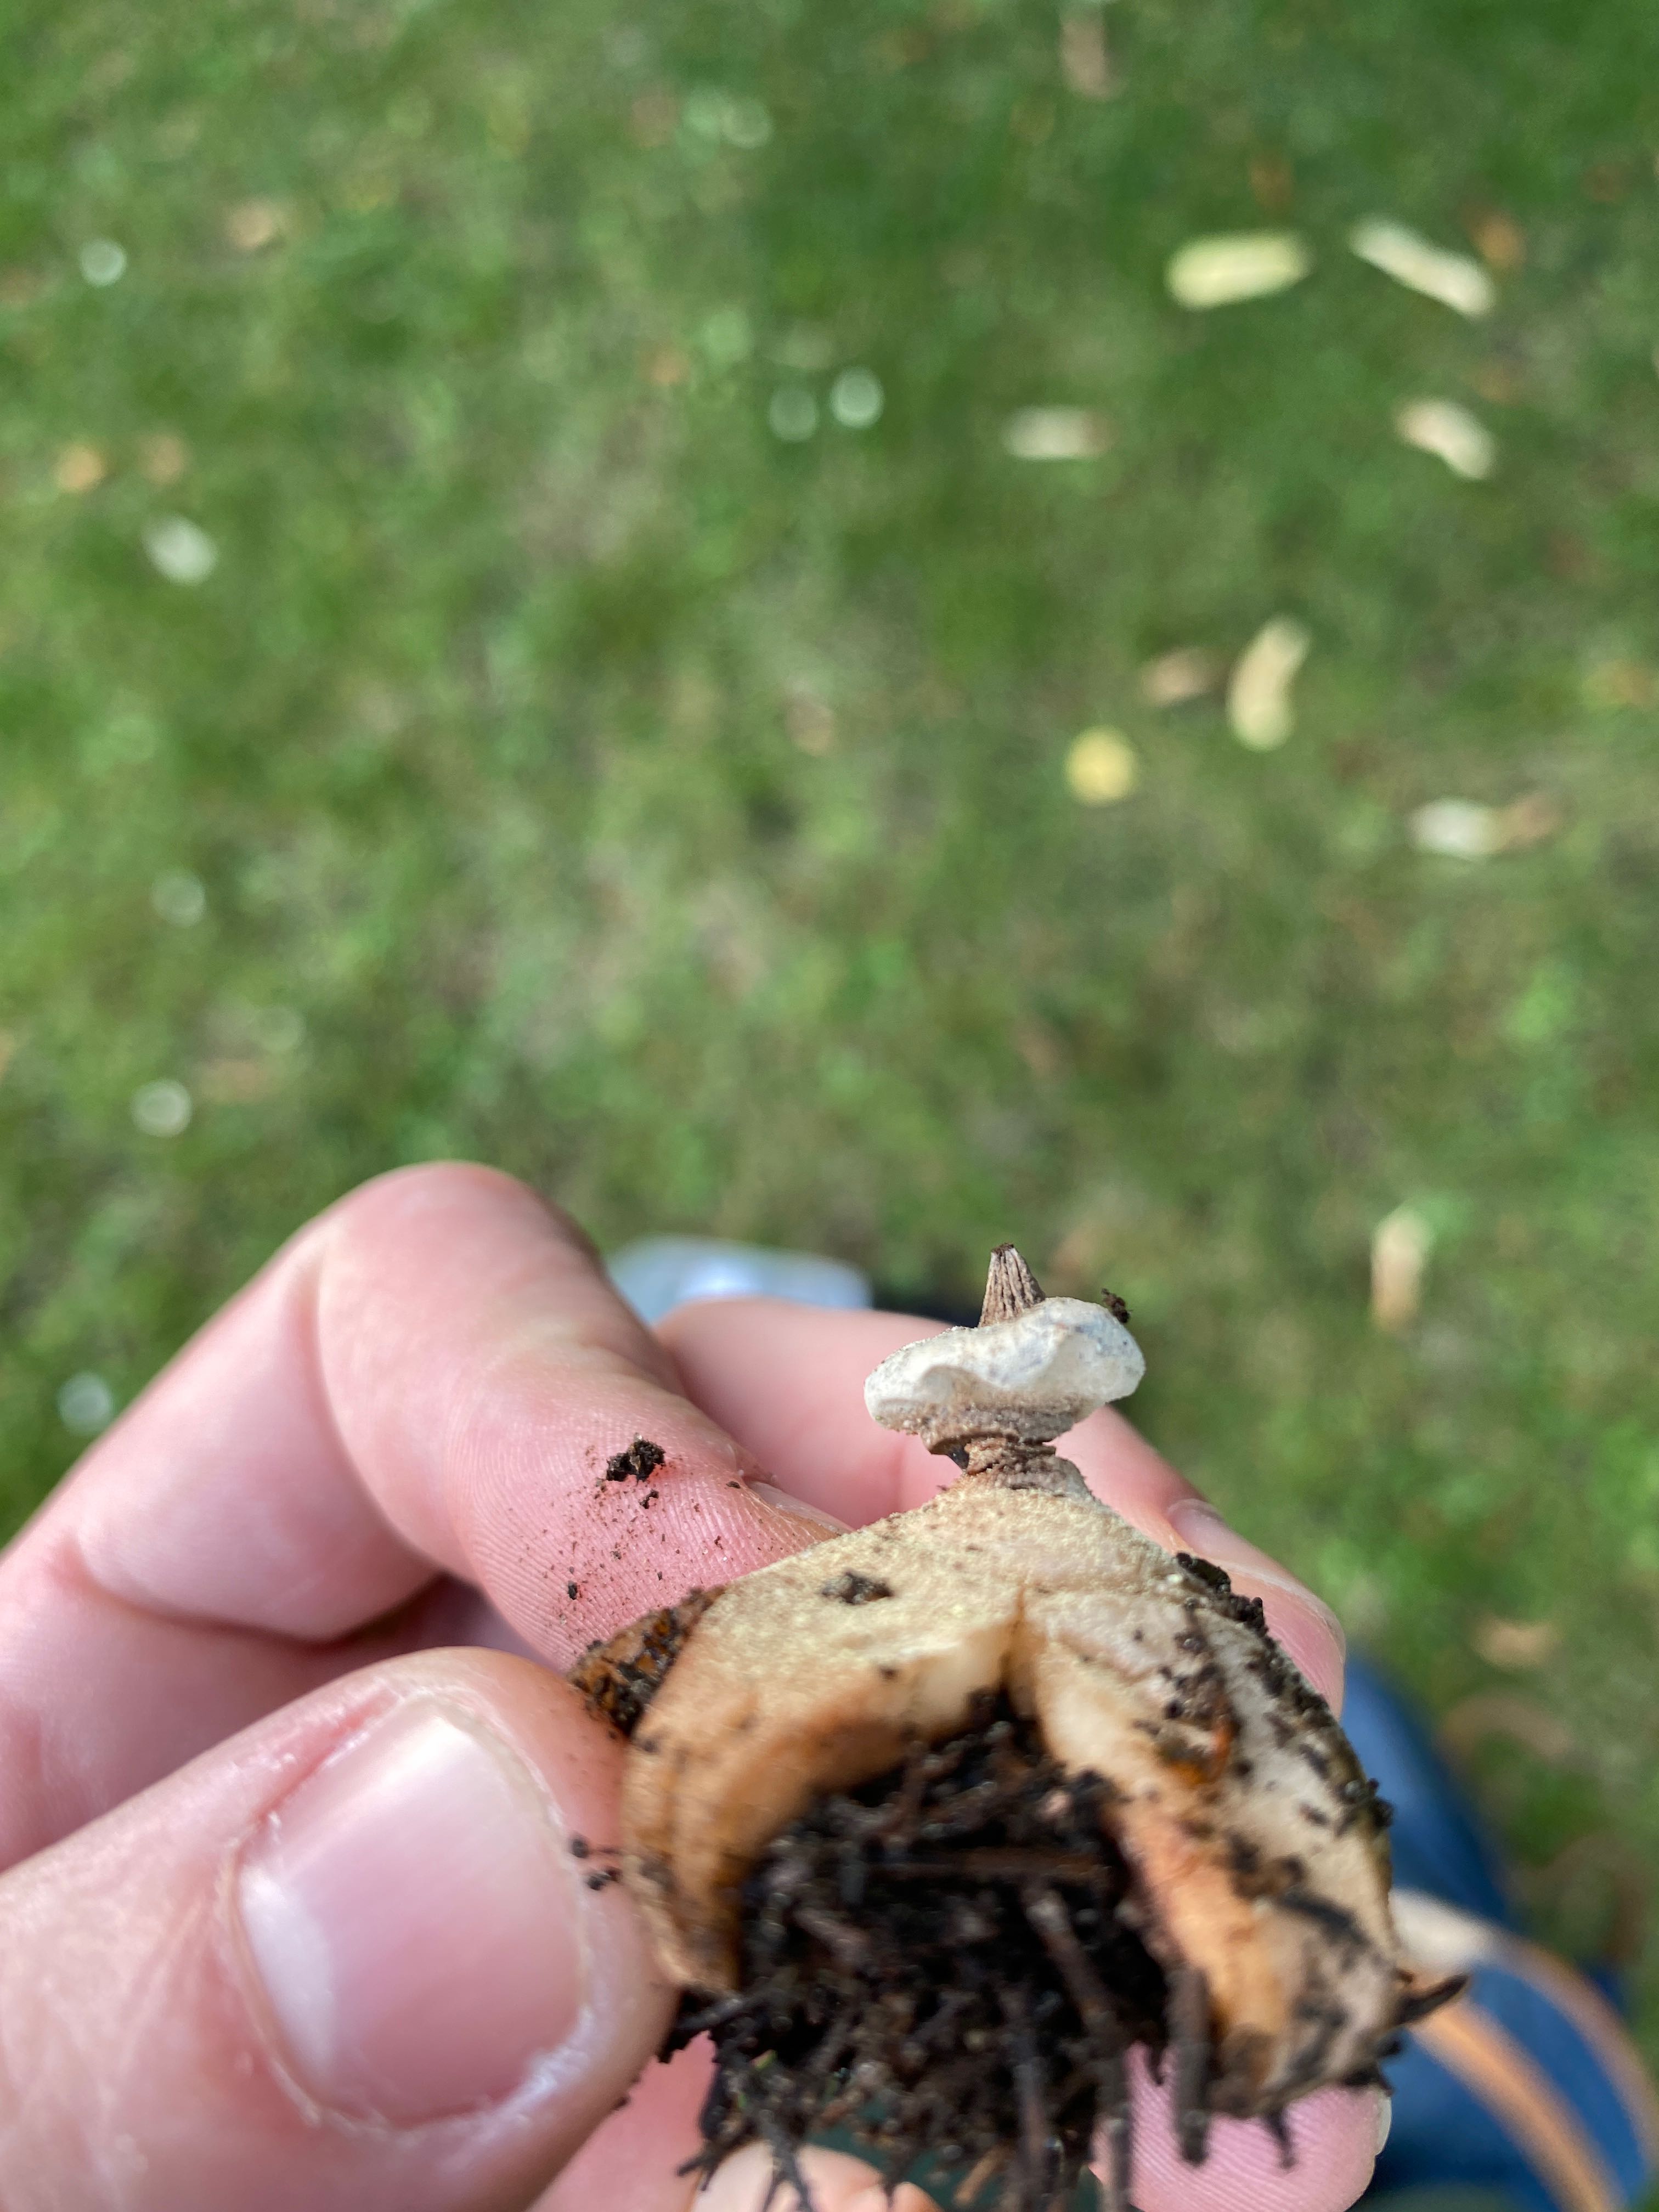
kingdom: Fungi
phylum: Basidiomycota
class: Agaricomycetes
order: Geastrales
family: Geastraceae
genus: Geastrum
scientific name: Geastrum striatum
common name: krave-stjernebold
